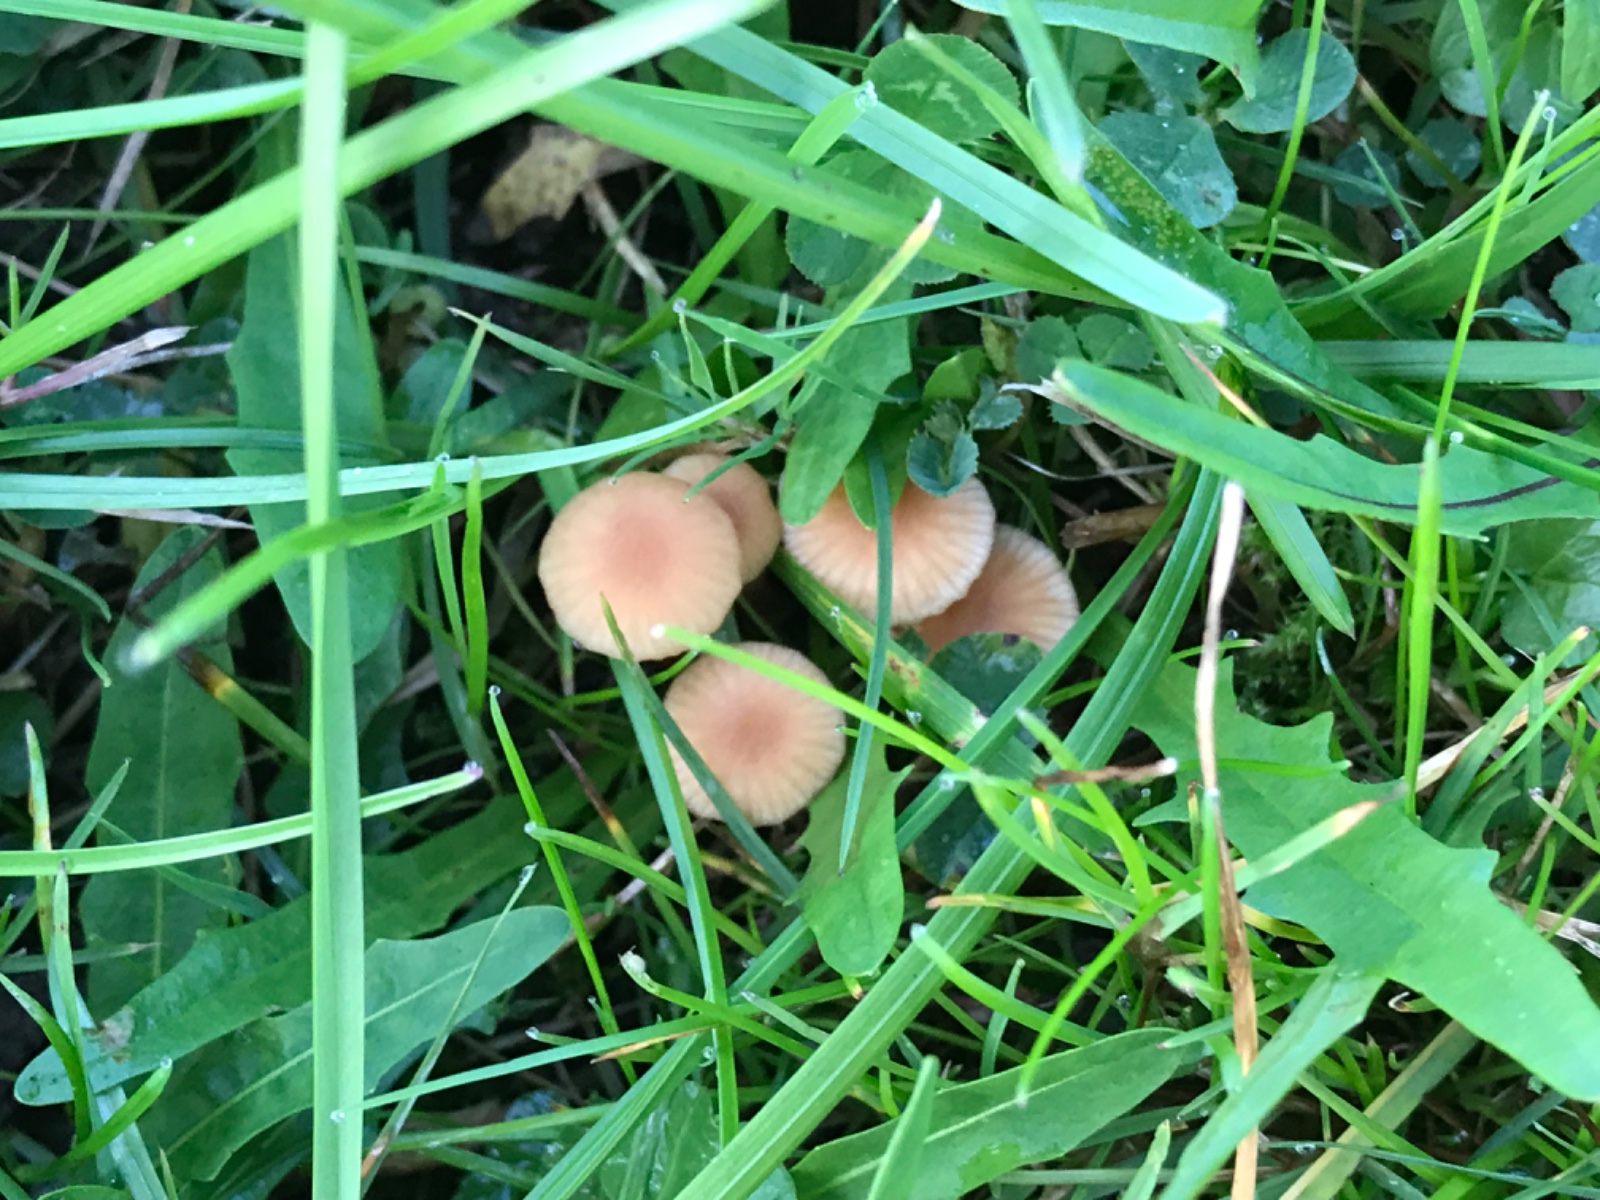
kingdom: Fungi
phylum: Basidiomycota
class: Agaricomycetes
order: Agaricales
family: Hydnangiaceae
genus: Laccaria
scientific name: Laccaria laccata
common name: rød ametysthat
